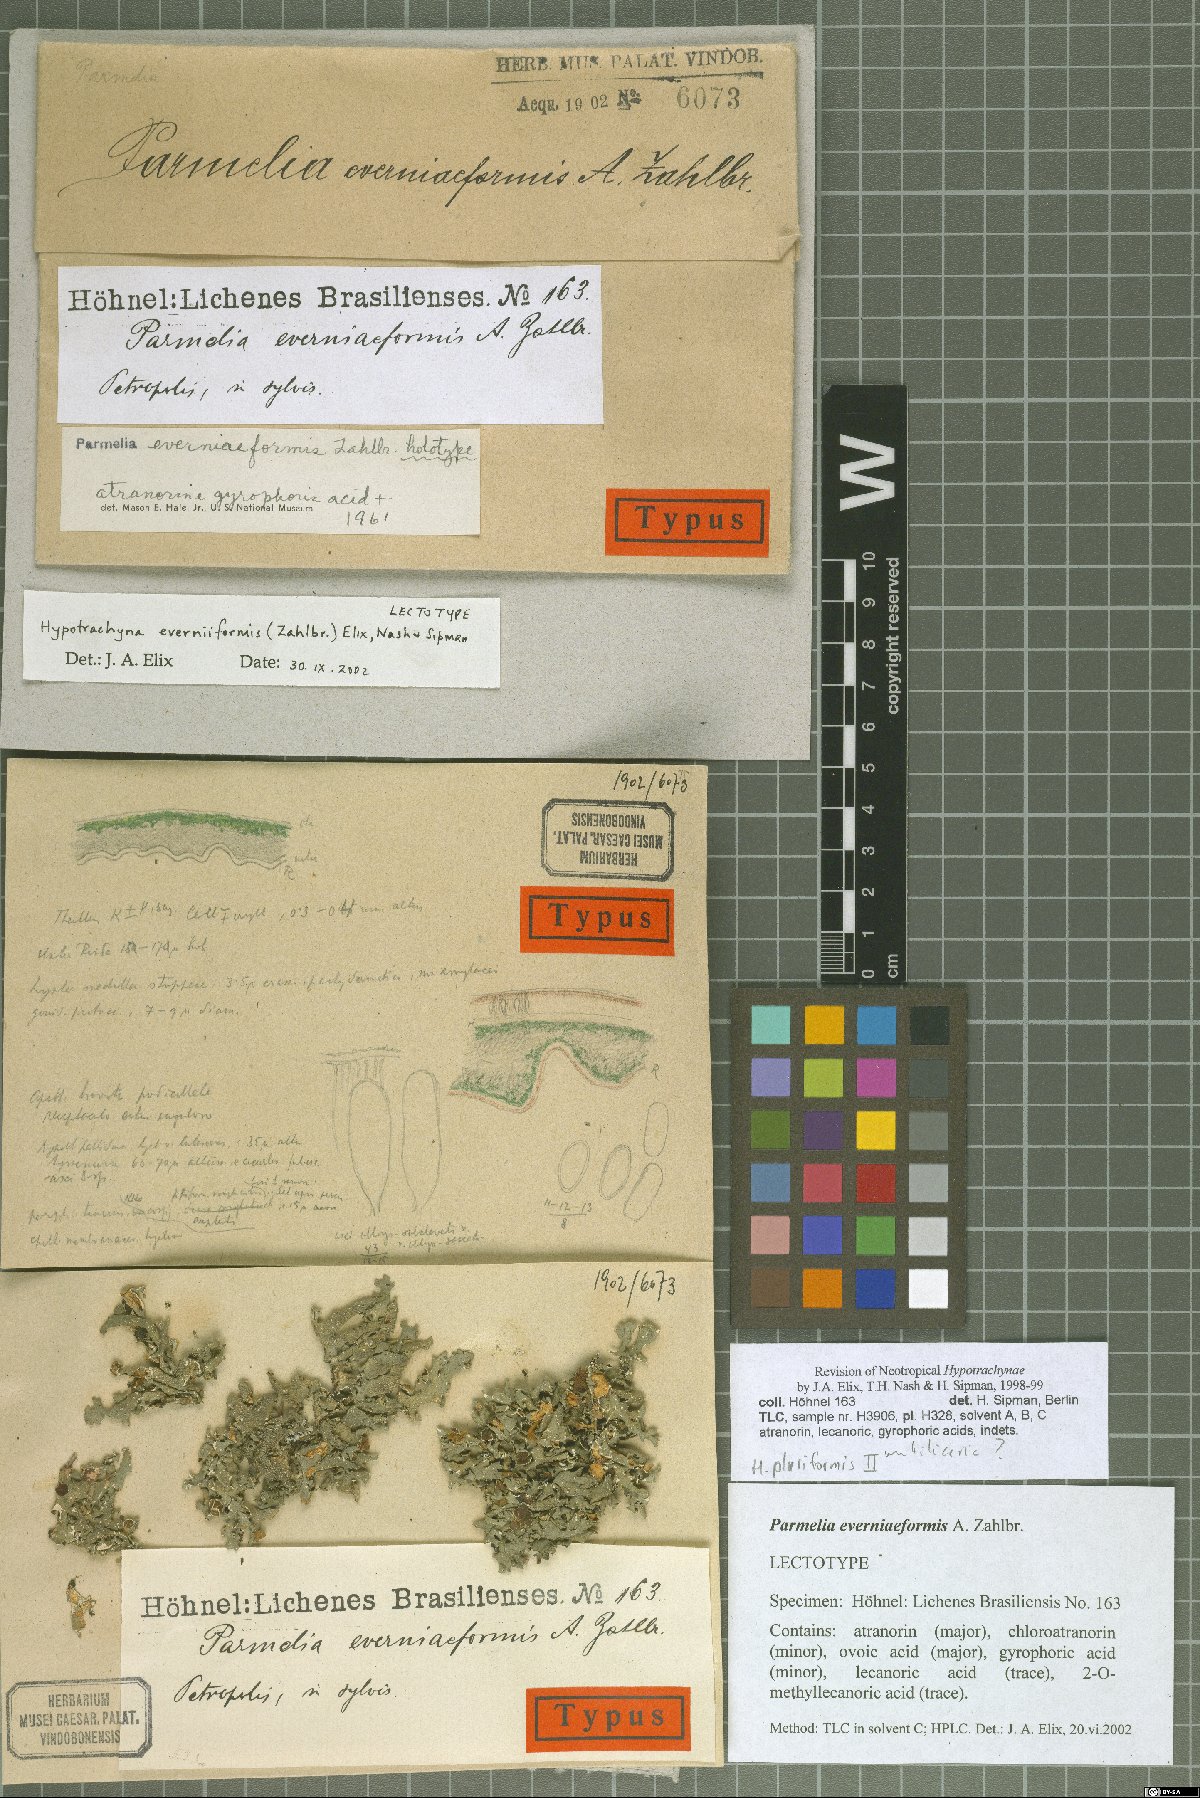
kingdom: Fungi
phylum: Ascomycota
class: Lecanoromycetes
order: Lecanorales
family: Parmeliaceae
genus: Hypotrachyna
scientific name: Hypotrachyna everniiformis
